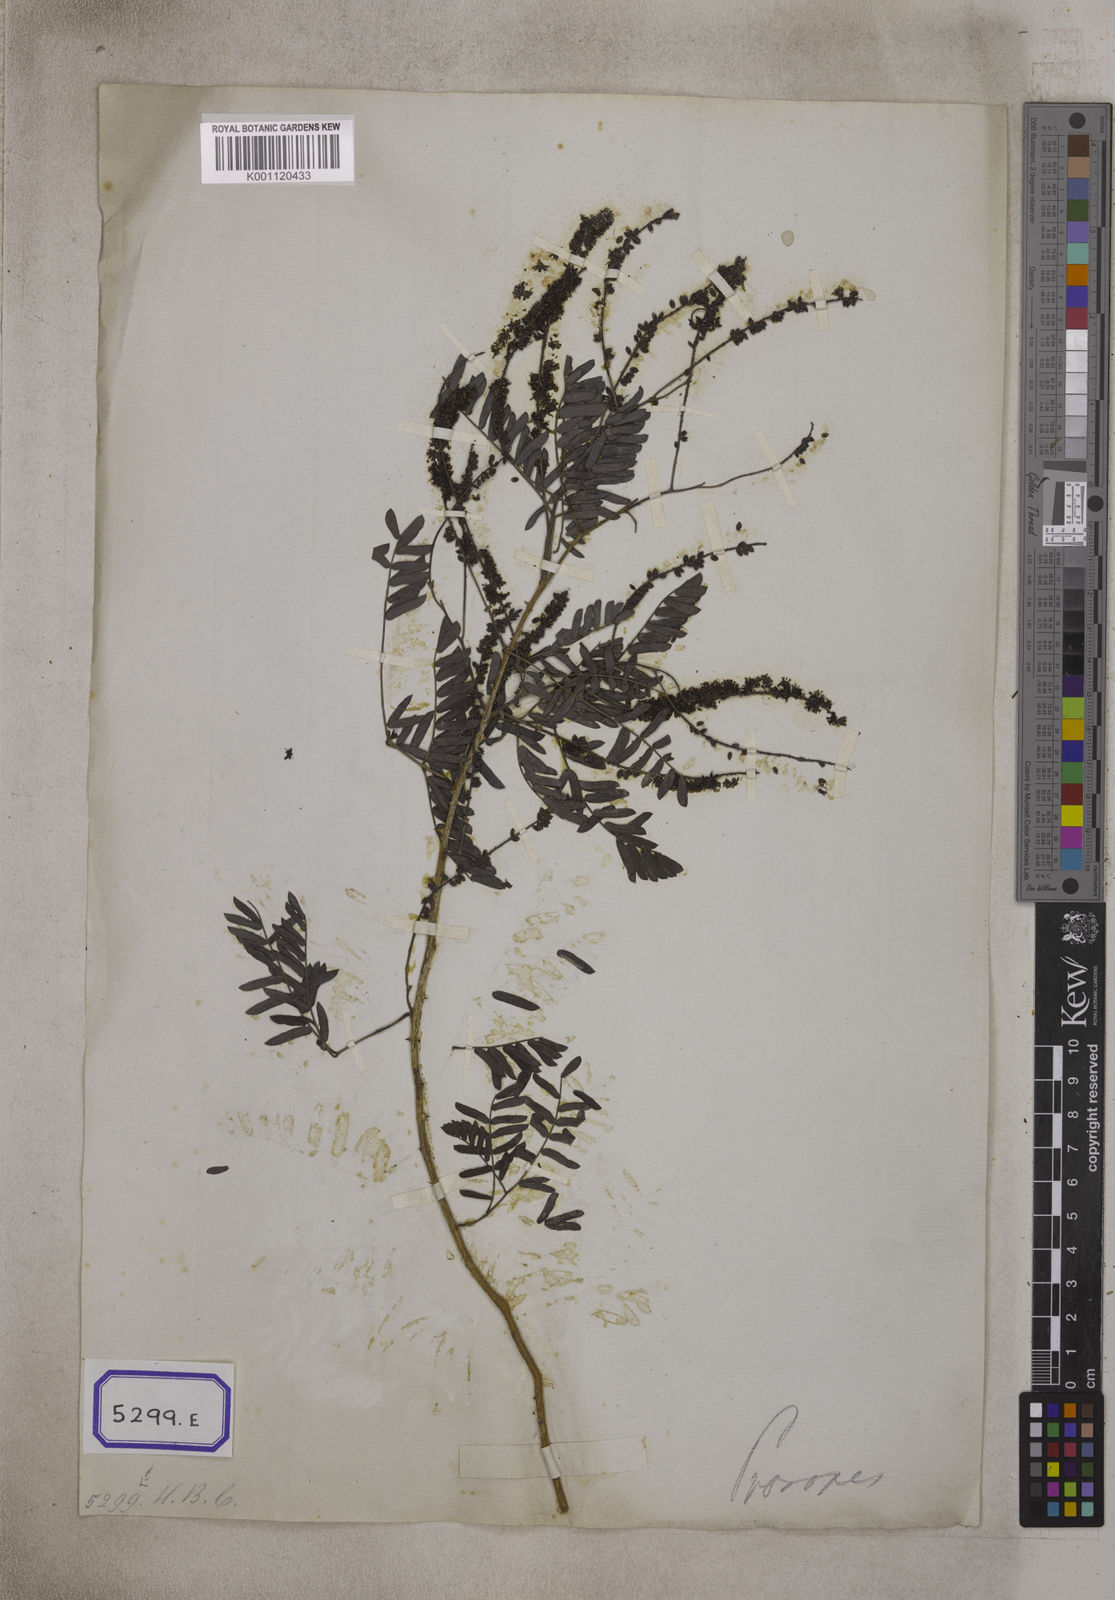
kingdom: Plantae
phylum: Tracheophyta
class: Magnoliopsida
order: Fabales
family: Fabaceae
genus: Prosopis
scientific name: Prosopis cineraria
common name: Jandi
